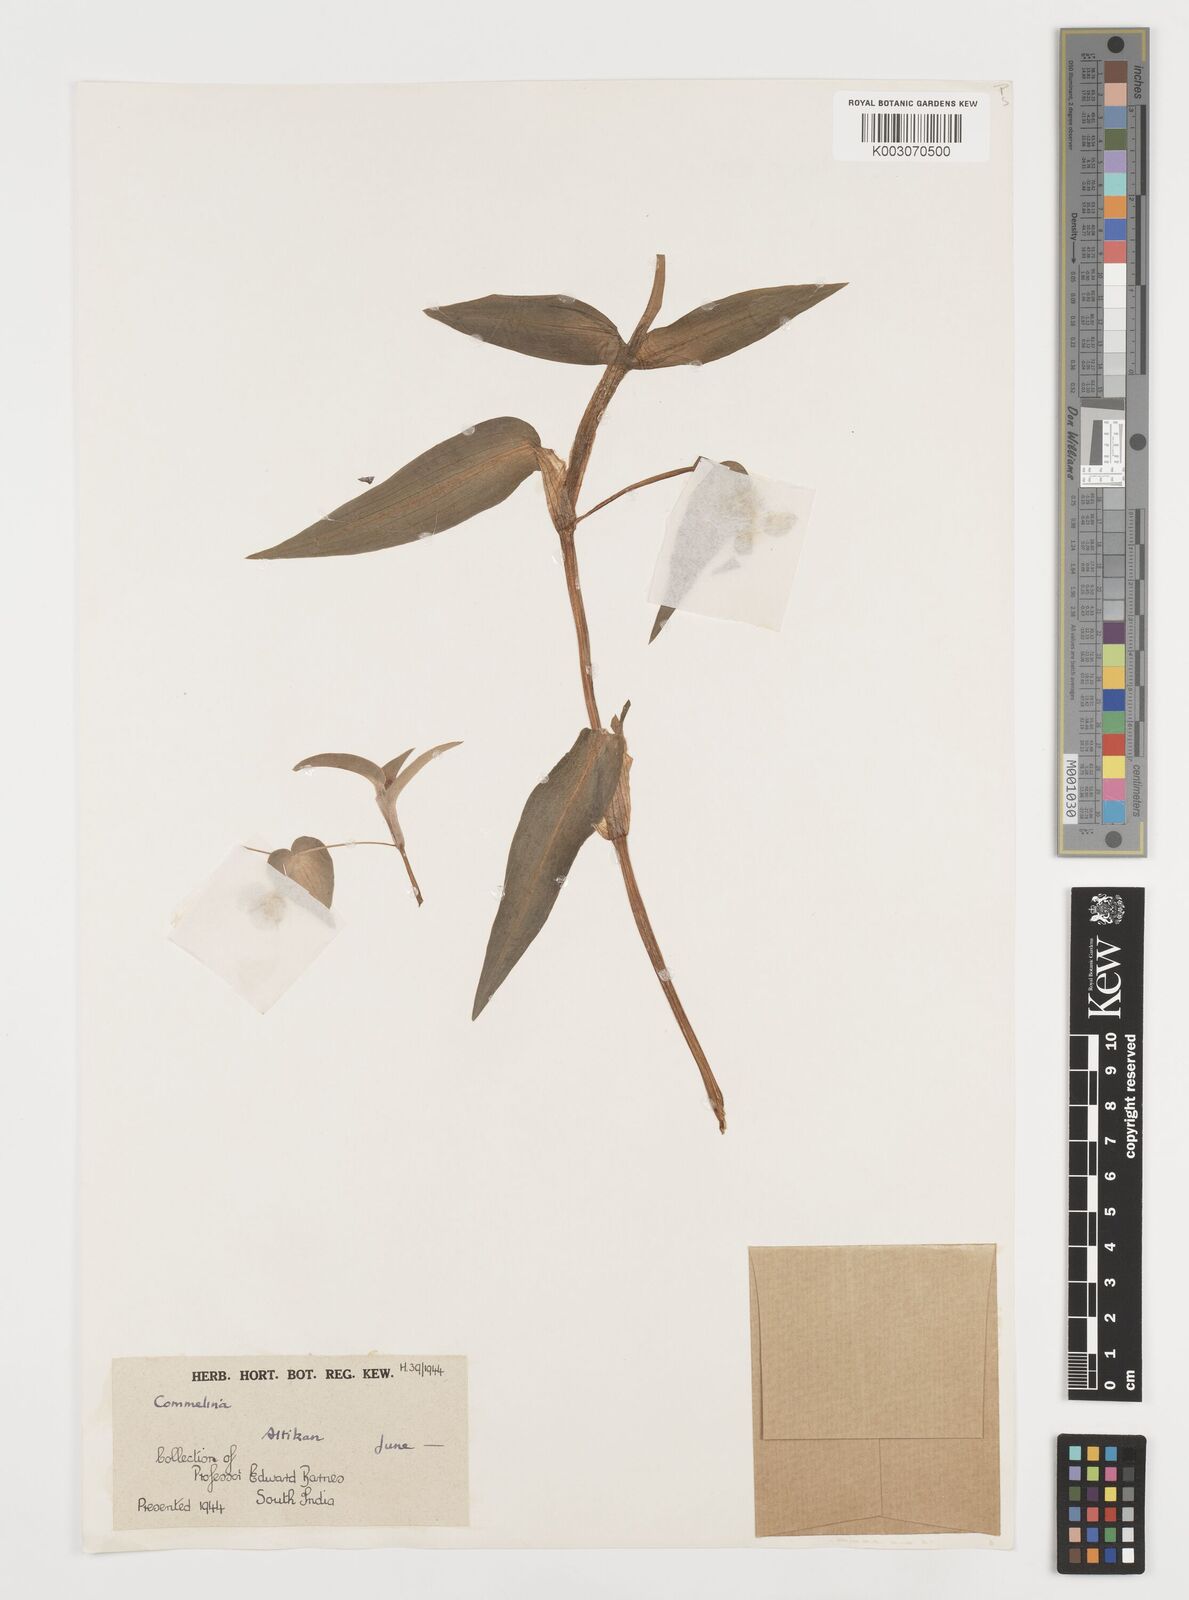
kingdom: Plantae
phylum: Tracheophyta
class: Liliopsida
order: Commelinales
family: Commelinaceae
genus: Commelina
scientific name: Commelina
